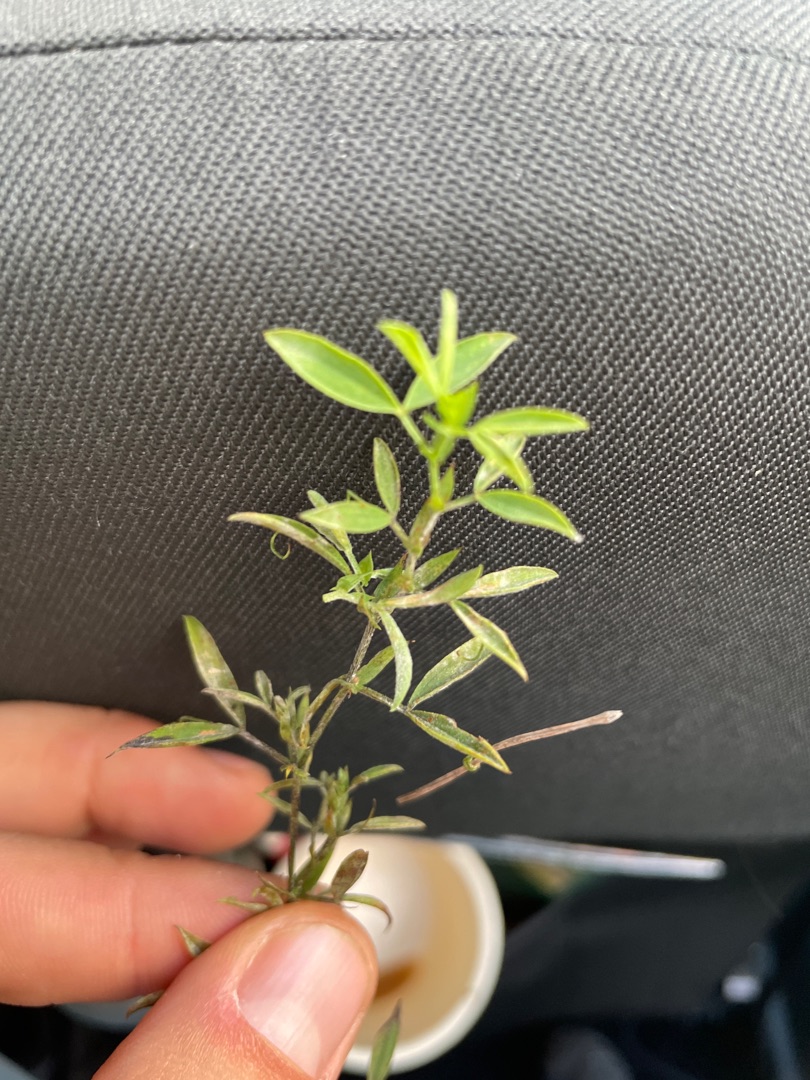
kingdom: Plantae
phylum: Tracheophyta
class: Magnoliopsida
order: Fabales
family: Fabaceae
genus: Lathyrus
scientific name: Lathyrus pratensis
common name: Gul fladbælg
